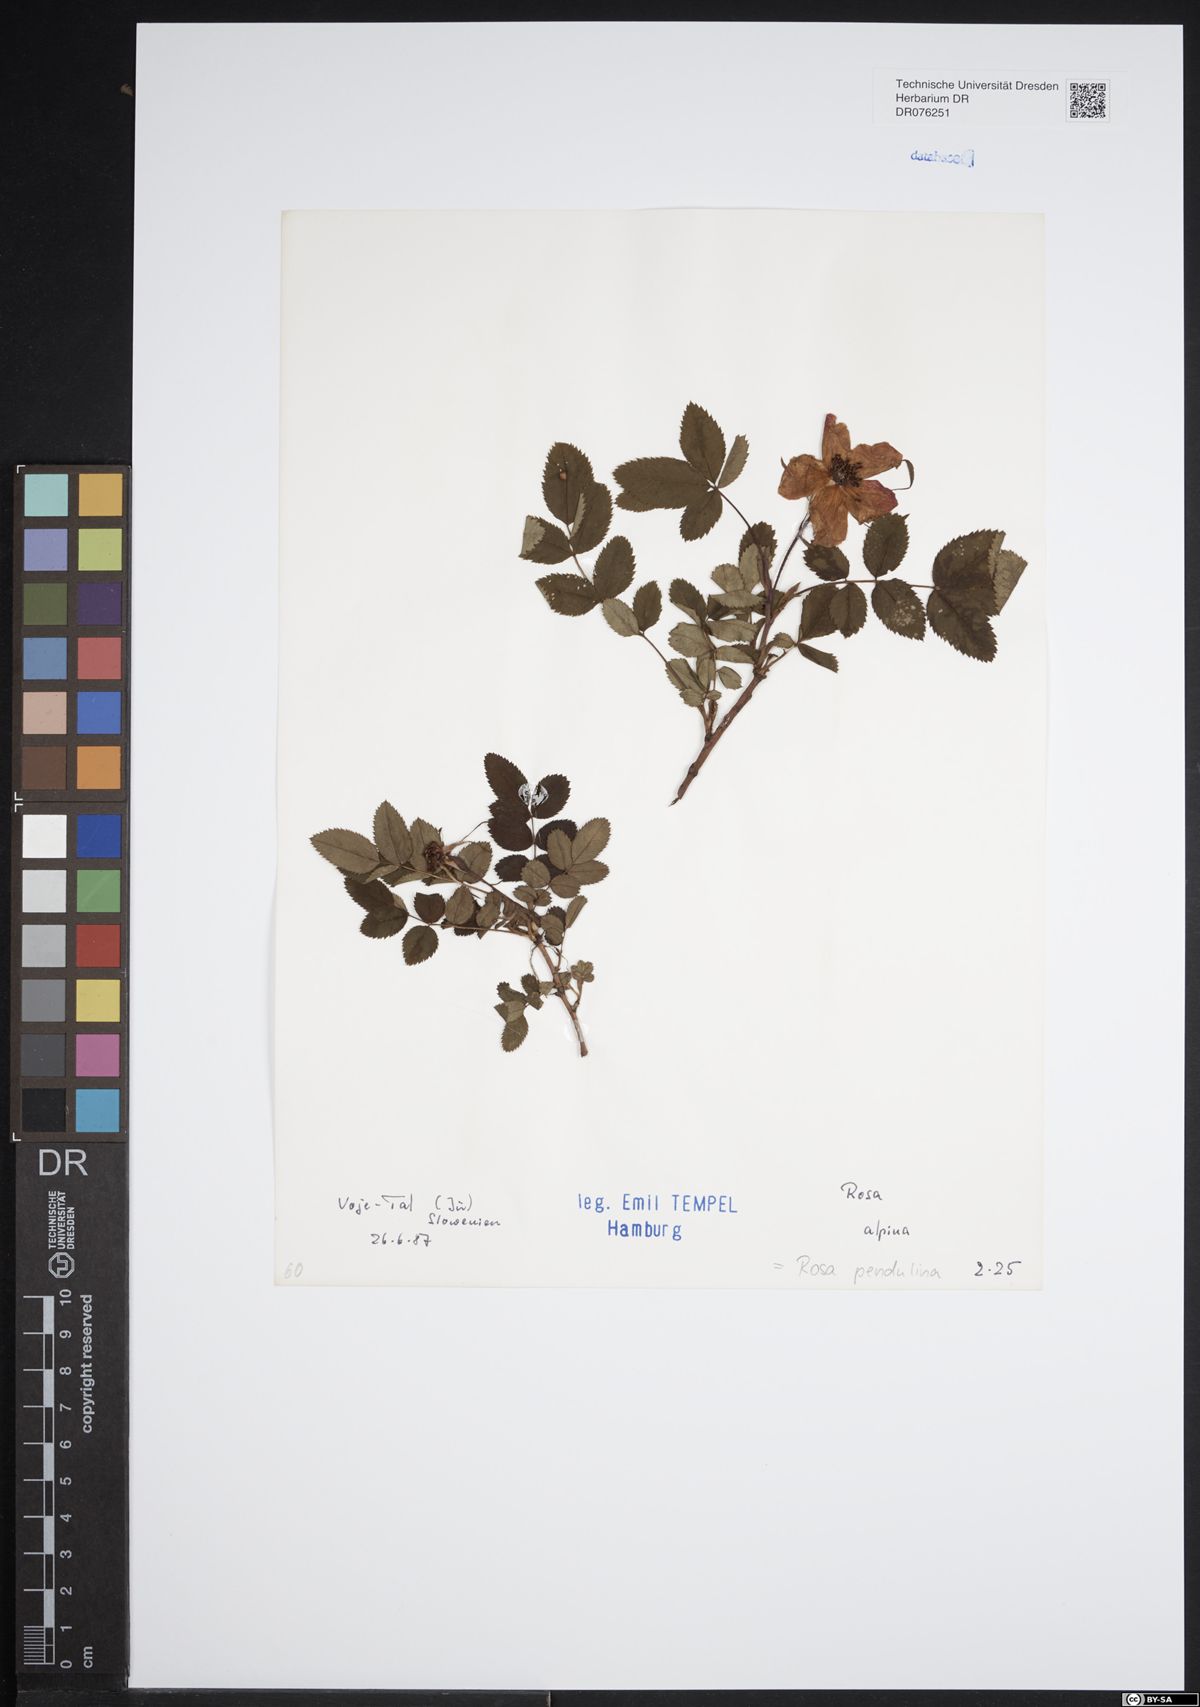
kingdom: Plantae
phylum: Tracheophyta
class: Magnoliopsida
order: Rosales
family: Rosaceae
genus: Rosa
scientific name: Rosa pendulina
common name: Alpine rose
